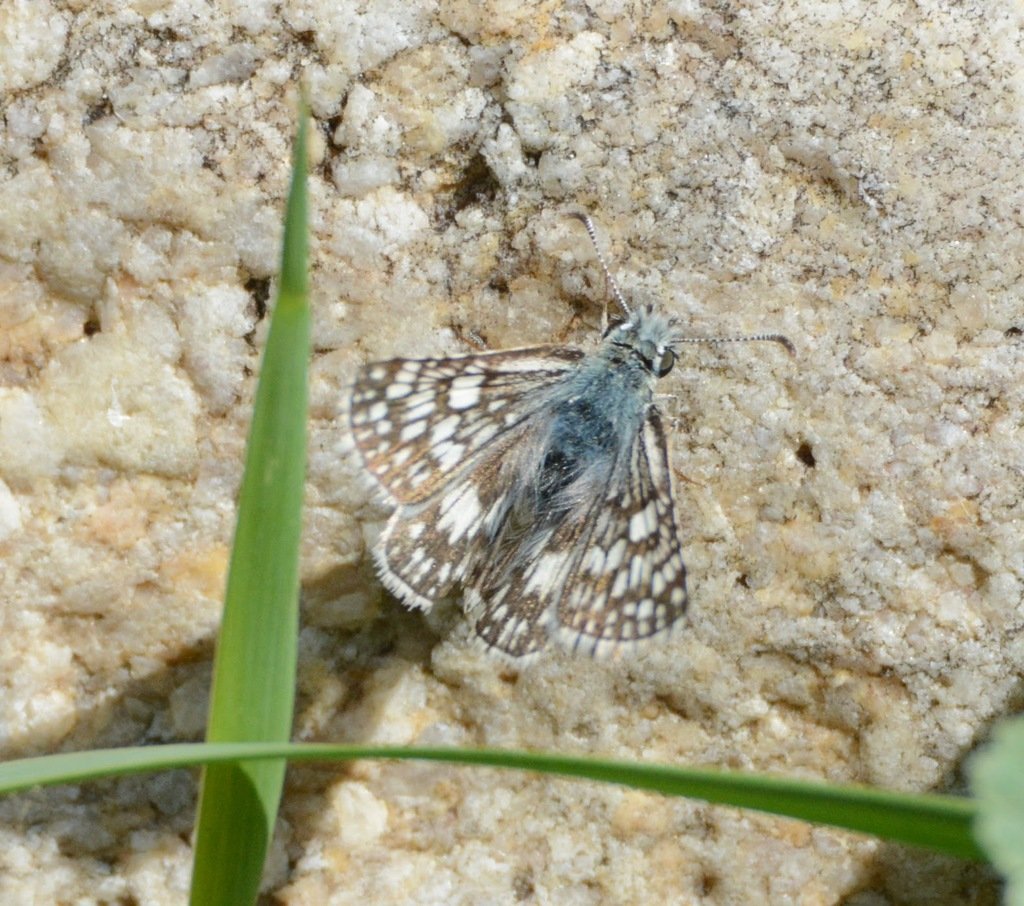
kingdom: Animalia
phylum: Arthropoda
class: Insecta
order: Lepidoptera
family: Hesperiidae
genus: Pyrgus
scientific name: Pyrgus communis
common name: Common Checkered-Skipper
